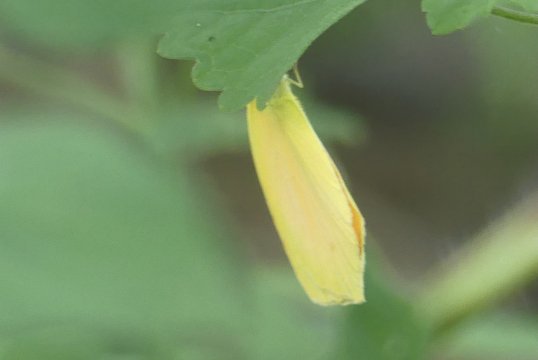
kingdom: Animalia
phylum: Arthropoda
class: Insecta
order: Lepidoptera
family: Pieridae
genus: Pyrisitia
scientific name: Pyrisitia proterpia
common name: Tailed Orange
